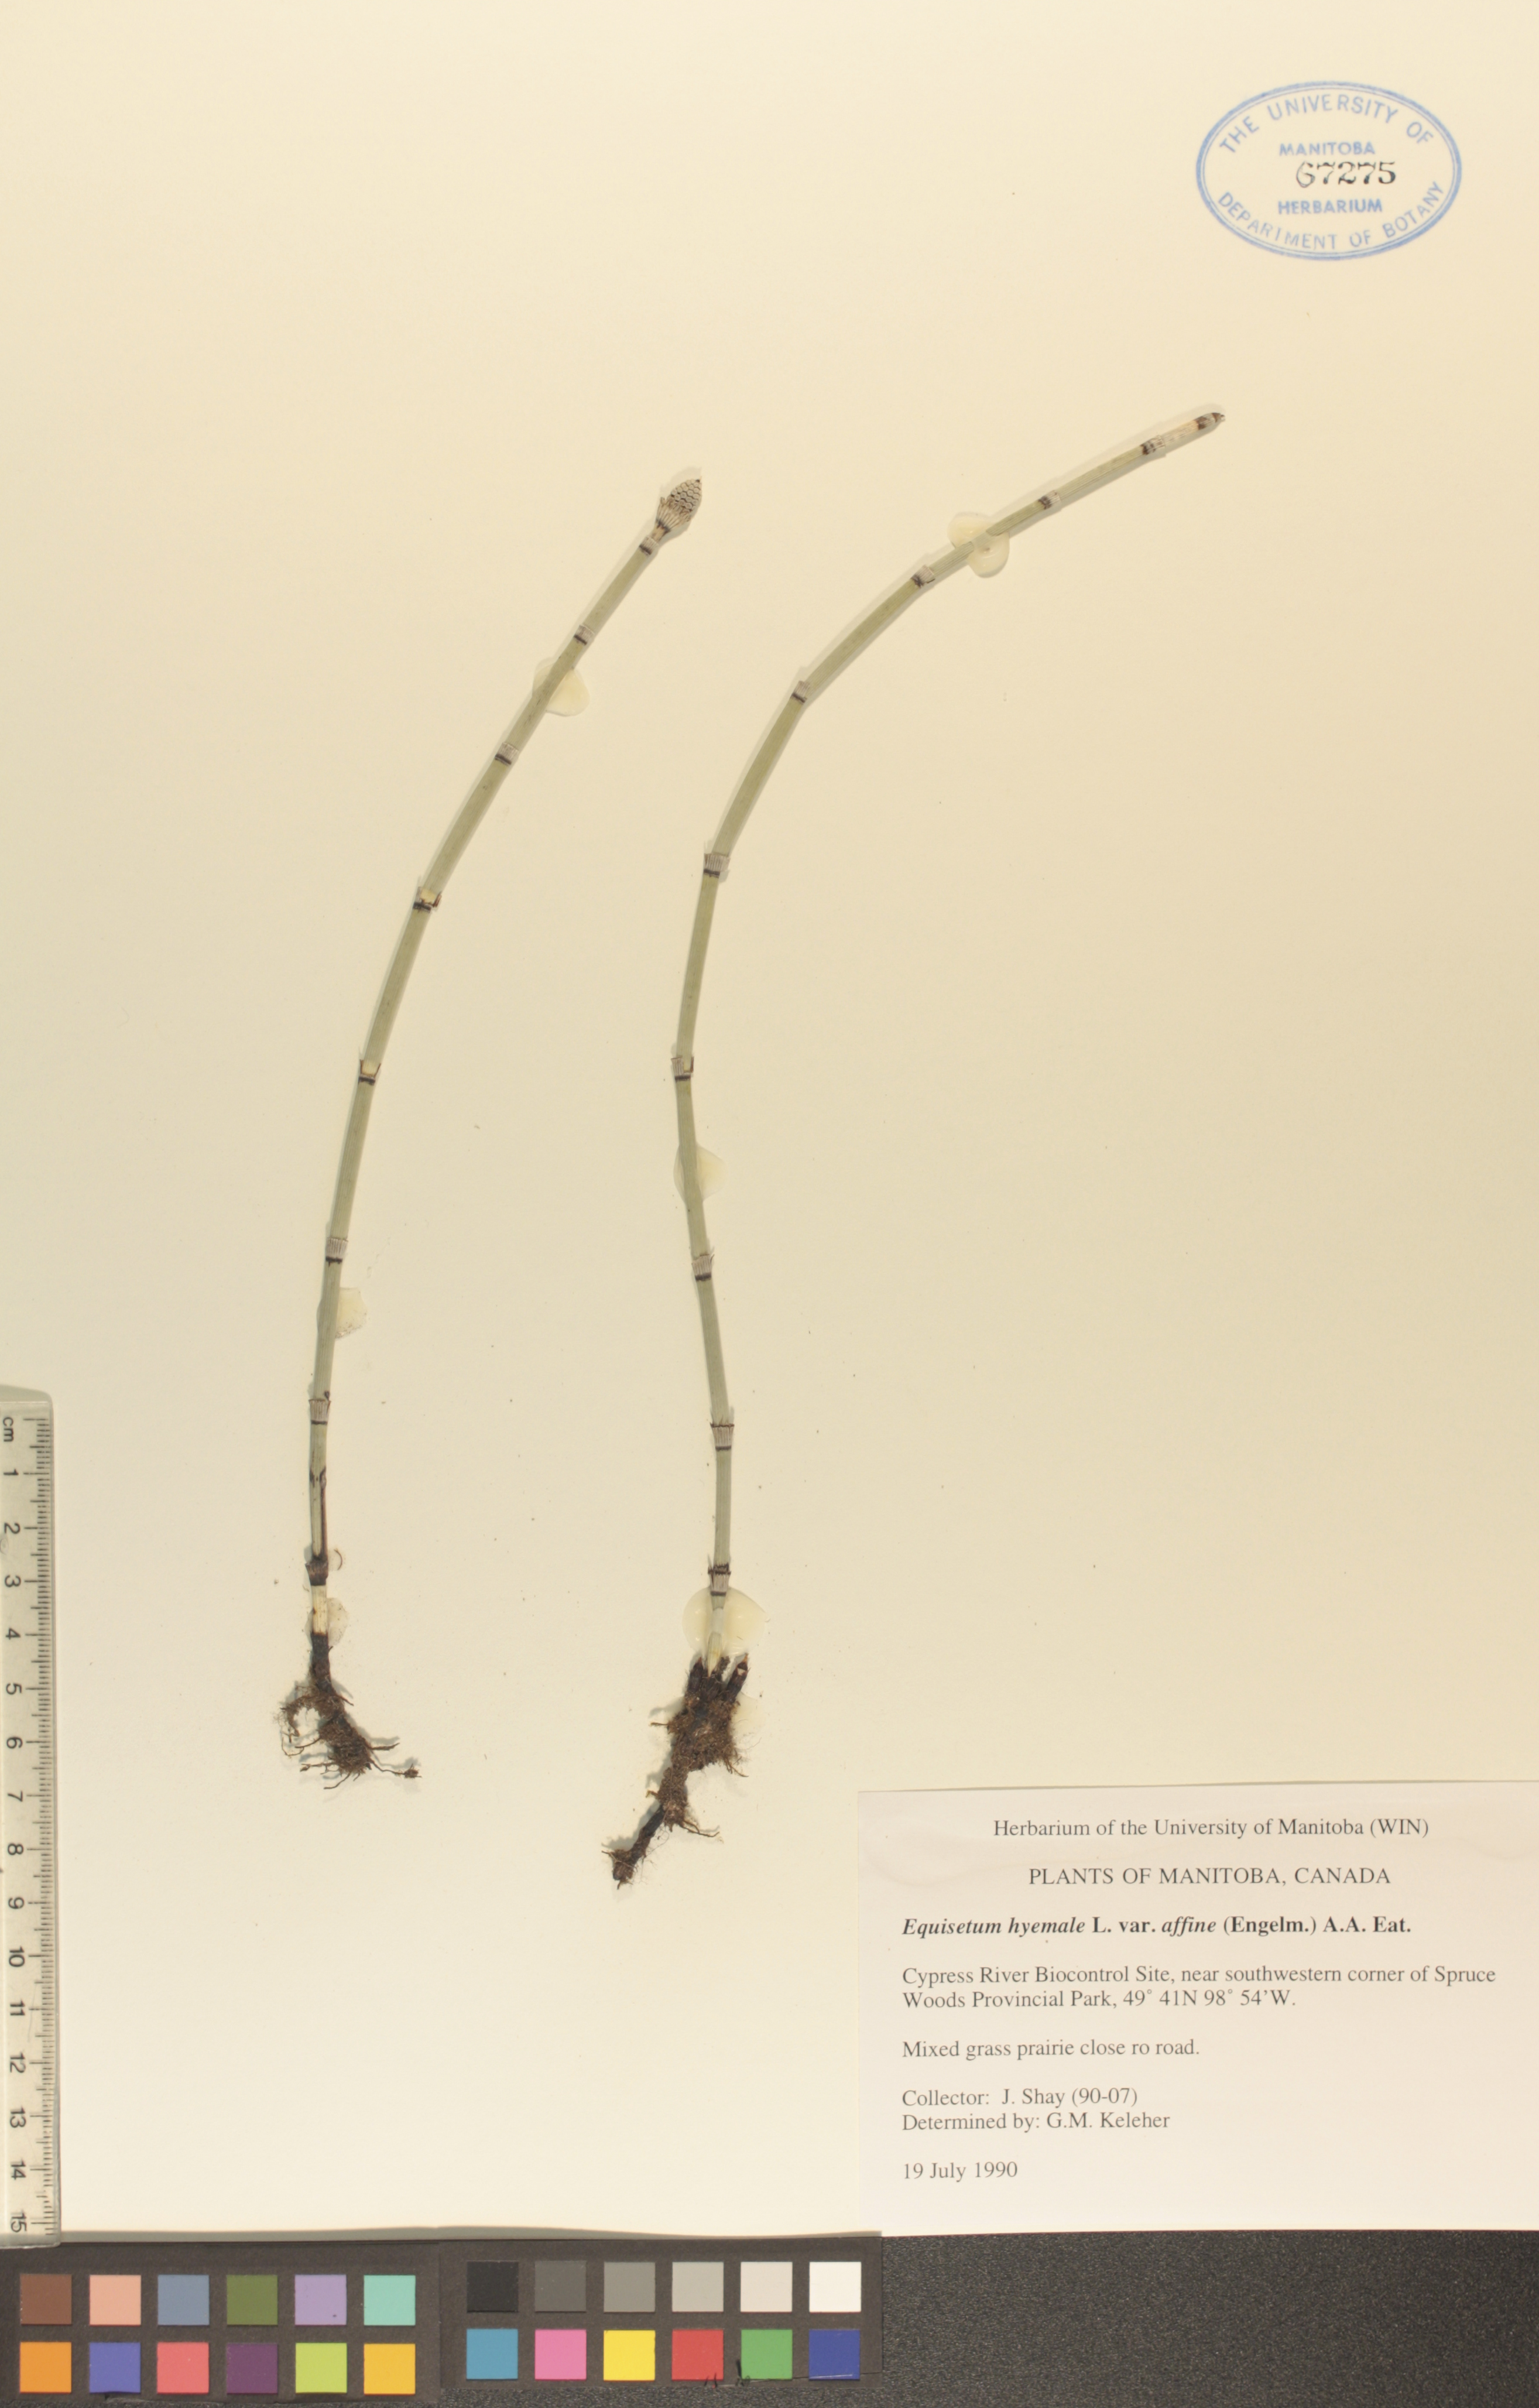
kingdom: Plantae
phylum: Tracheophyta
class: Polypodiopsida
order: Equisetales
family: Equisetaceae
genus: Equisetum
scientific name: Equisetum praealtum
